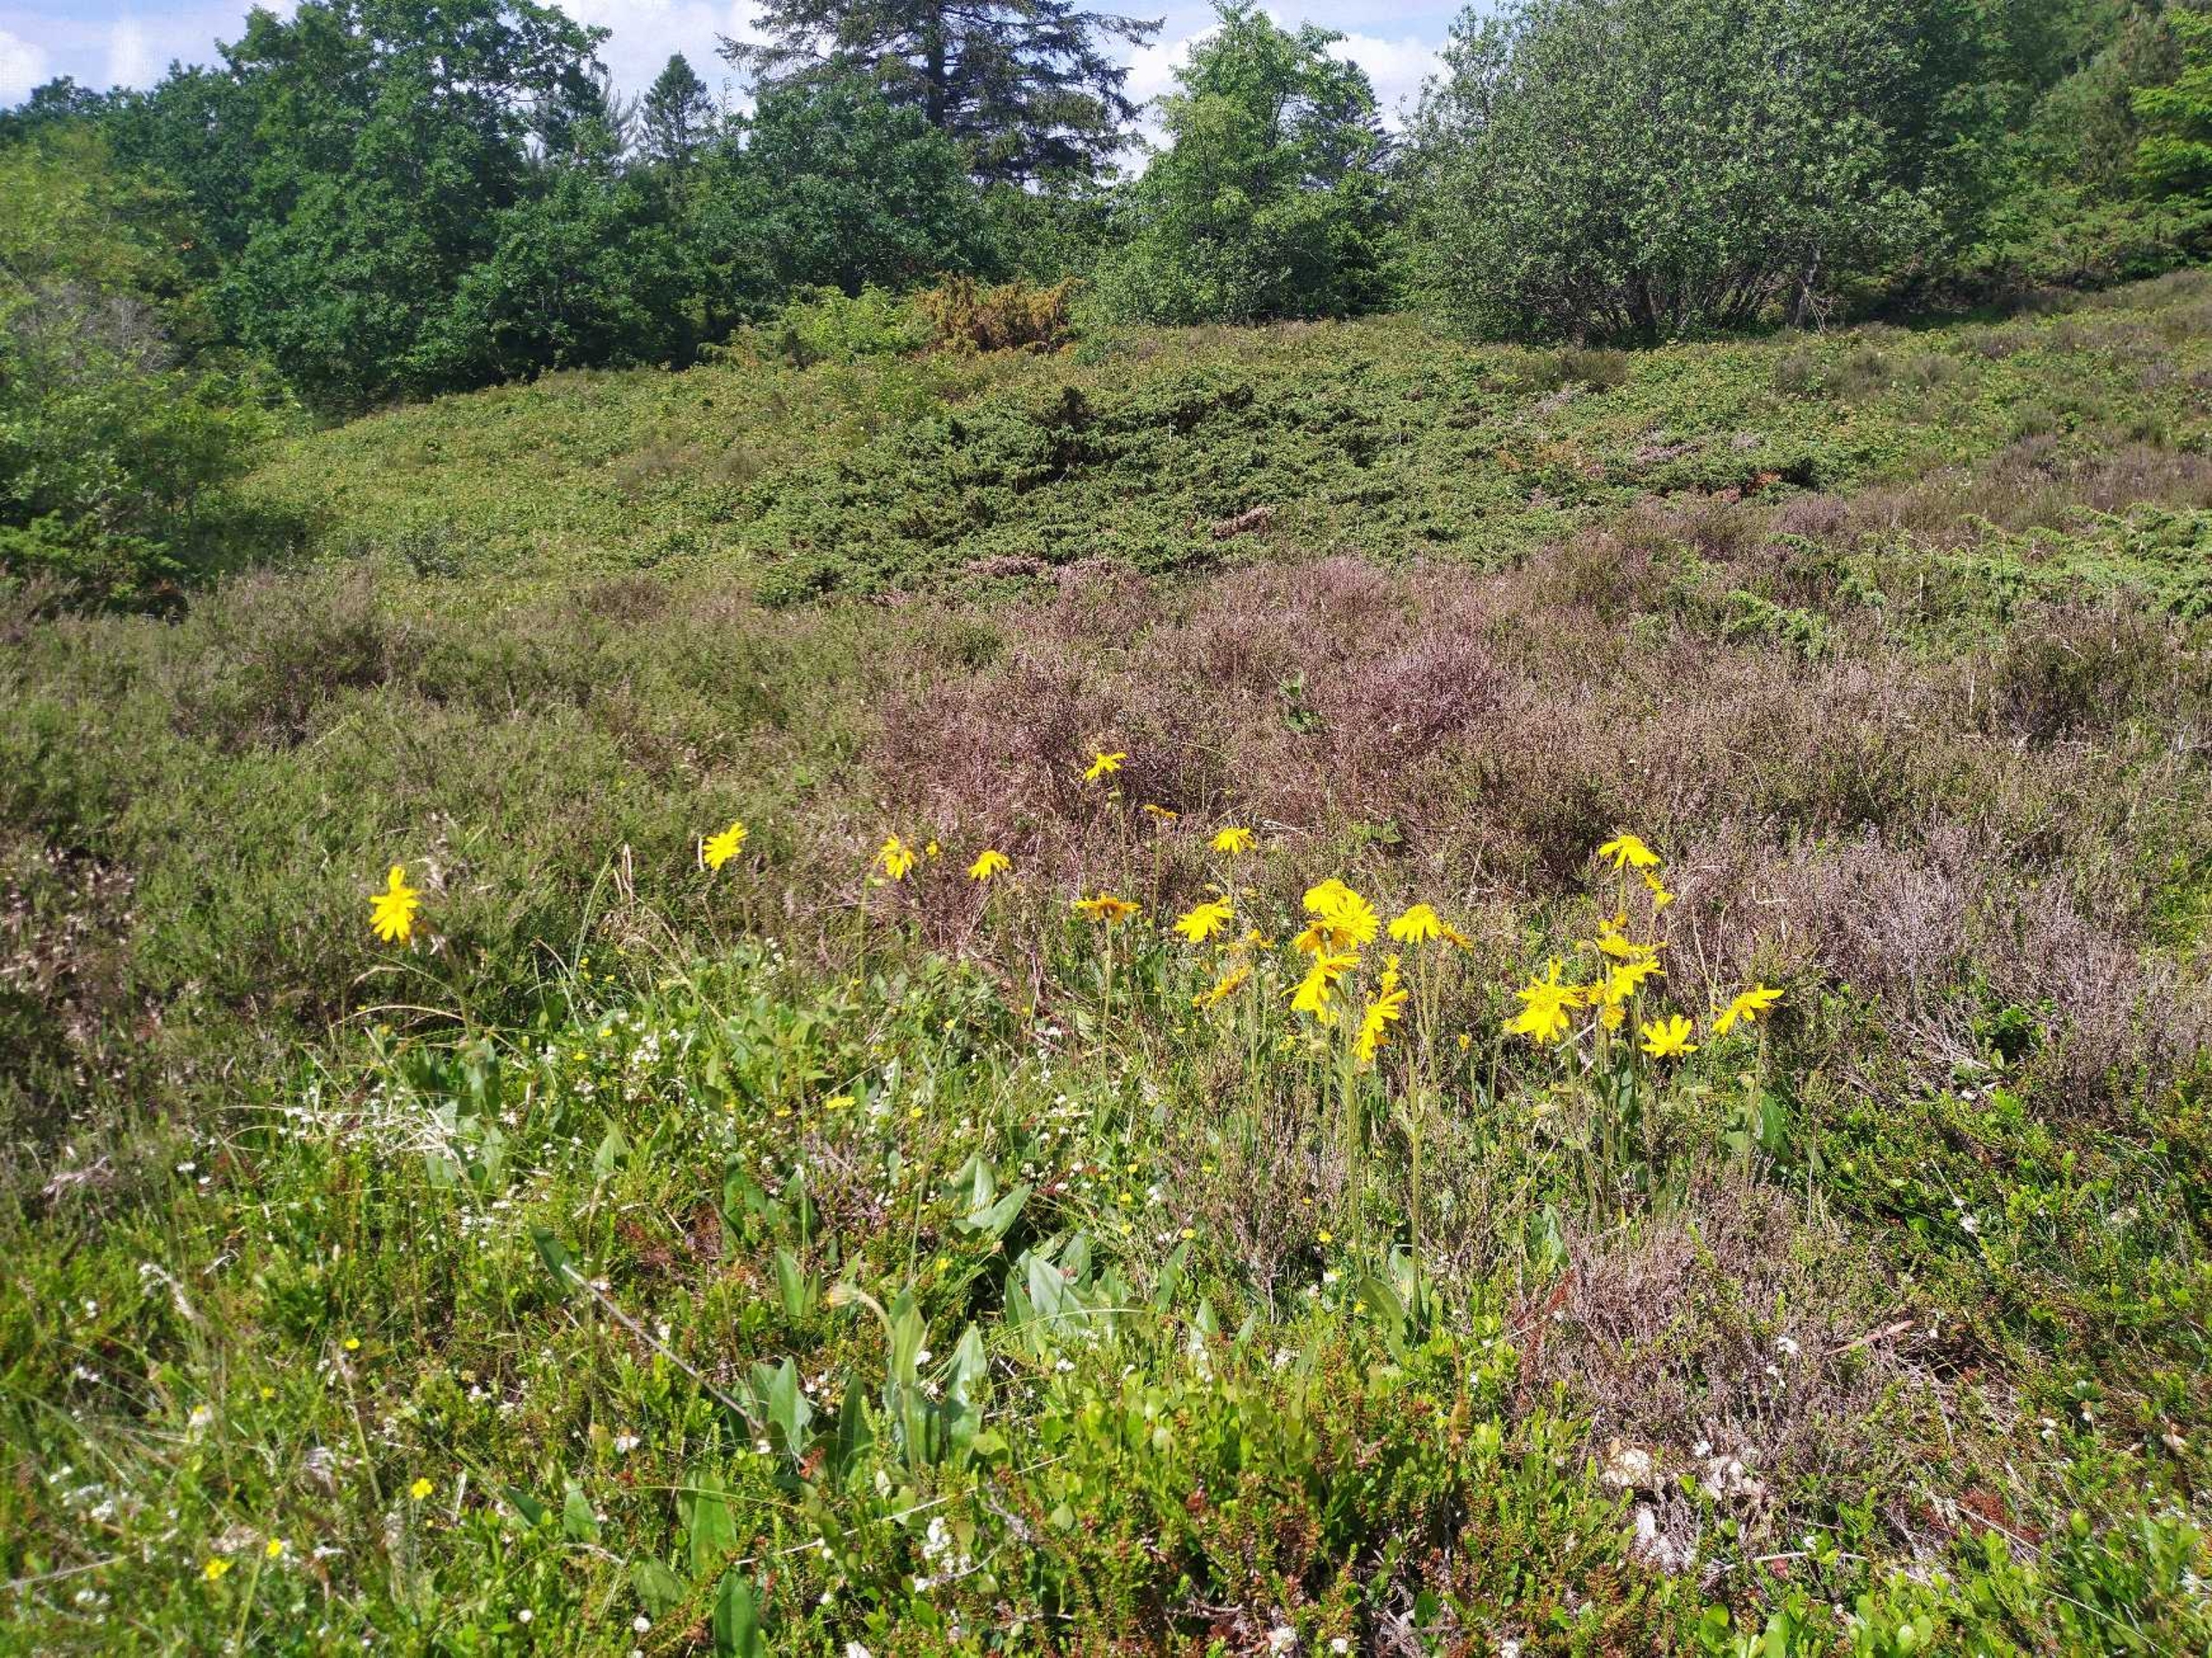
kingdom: Plantae
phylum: Tracheophyta
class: Magnoliopsida
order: Asterales
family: Asteraceae
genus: Arnica
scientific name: Arnica montana
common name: Guldblomme
